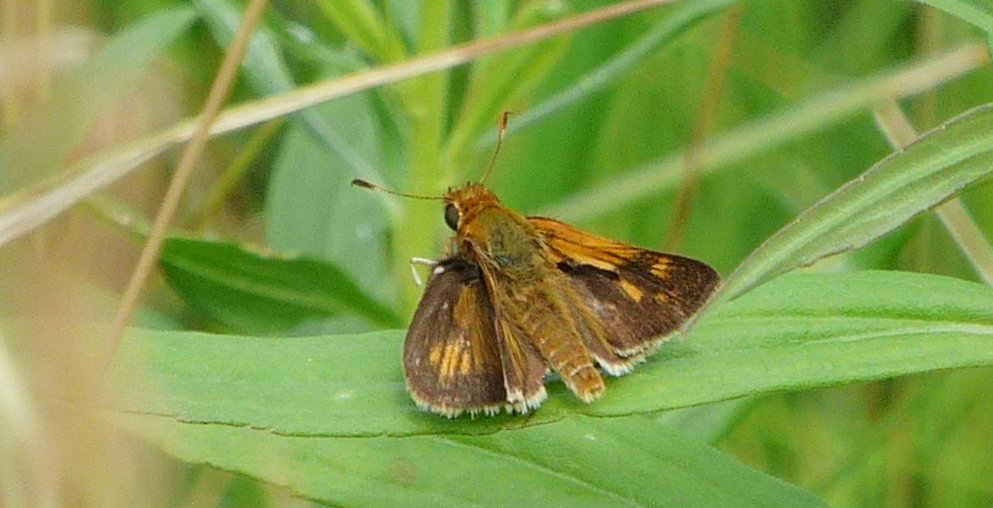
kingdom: Animalia
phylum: Arthropoda
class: Insecta
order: Lepidoptera
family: Hesperiidae
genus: Polites
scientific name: Polites coras
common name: Peck's Skipper
